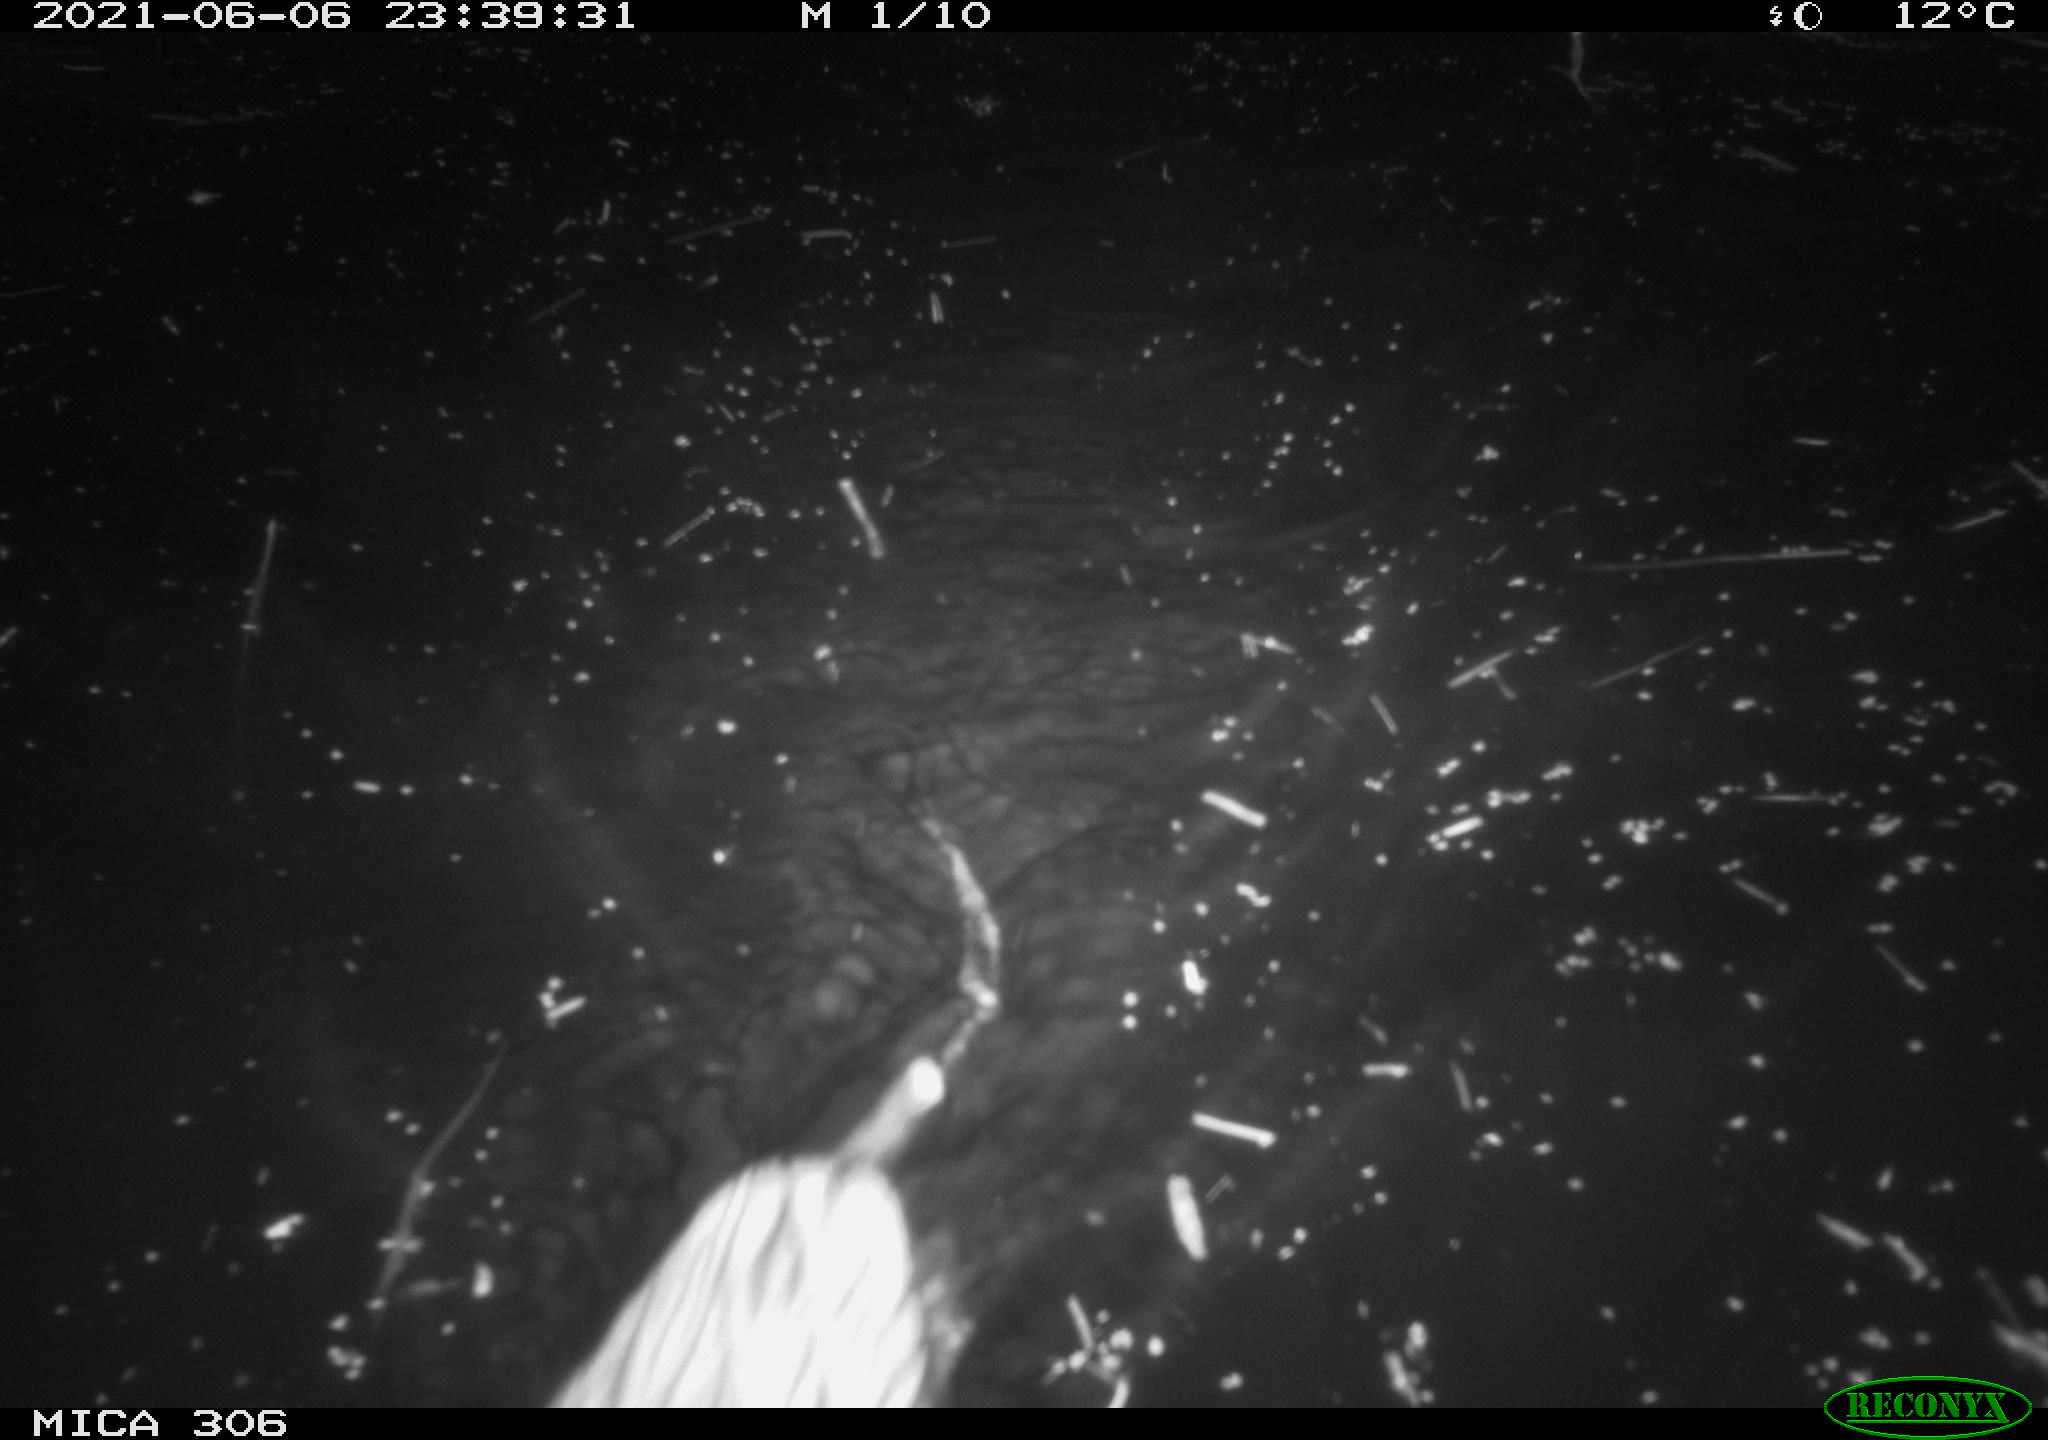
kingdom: Animalia
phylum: Chordata
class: Mammalia
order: Rodentia
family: Cricetidae
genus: Ondatra
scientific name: Ondatra zibethicus
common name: Muskrat
